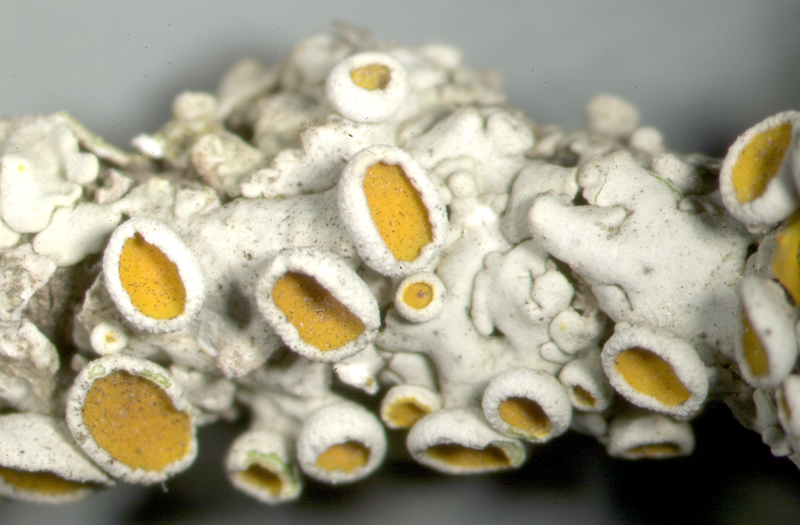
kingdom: Fungi
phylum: Ascomycota
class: Lecanoromycetes
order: Teloschistales
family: Teloschistaceae
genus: Xanthoria
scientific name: Xanthoria
